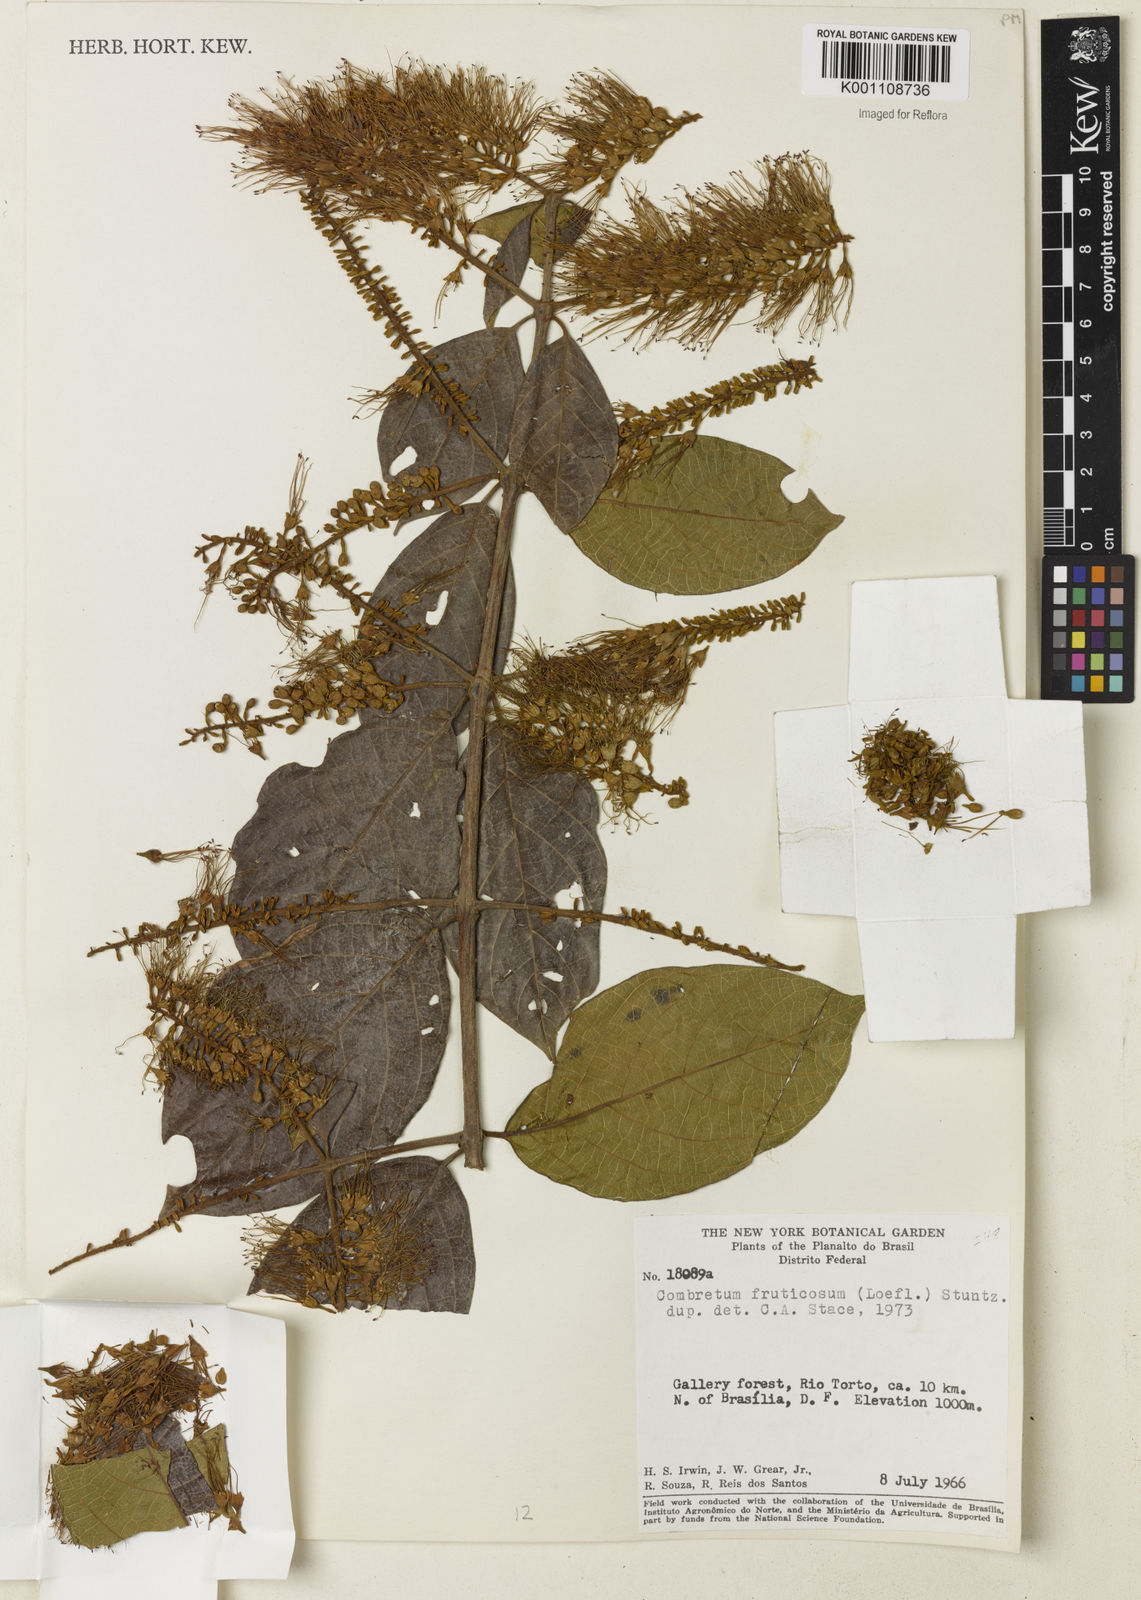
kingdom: Plantae
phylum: Tracheophyta
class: Magnoliopsida
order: Myrtales
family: Combretaceae
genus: Combretum
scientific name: Combretum fruticosum
